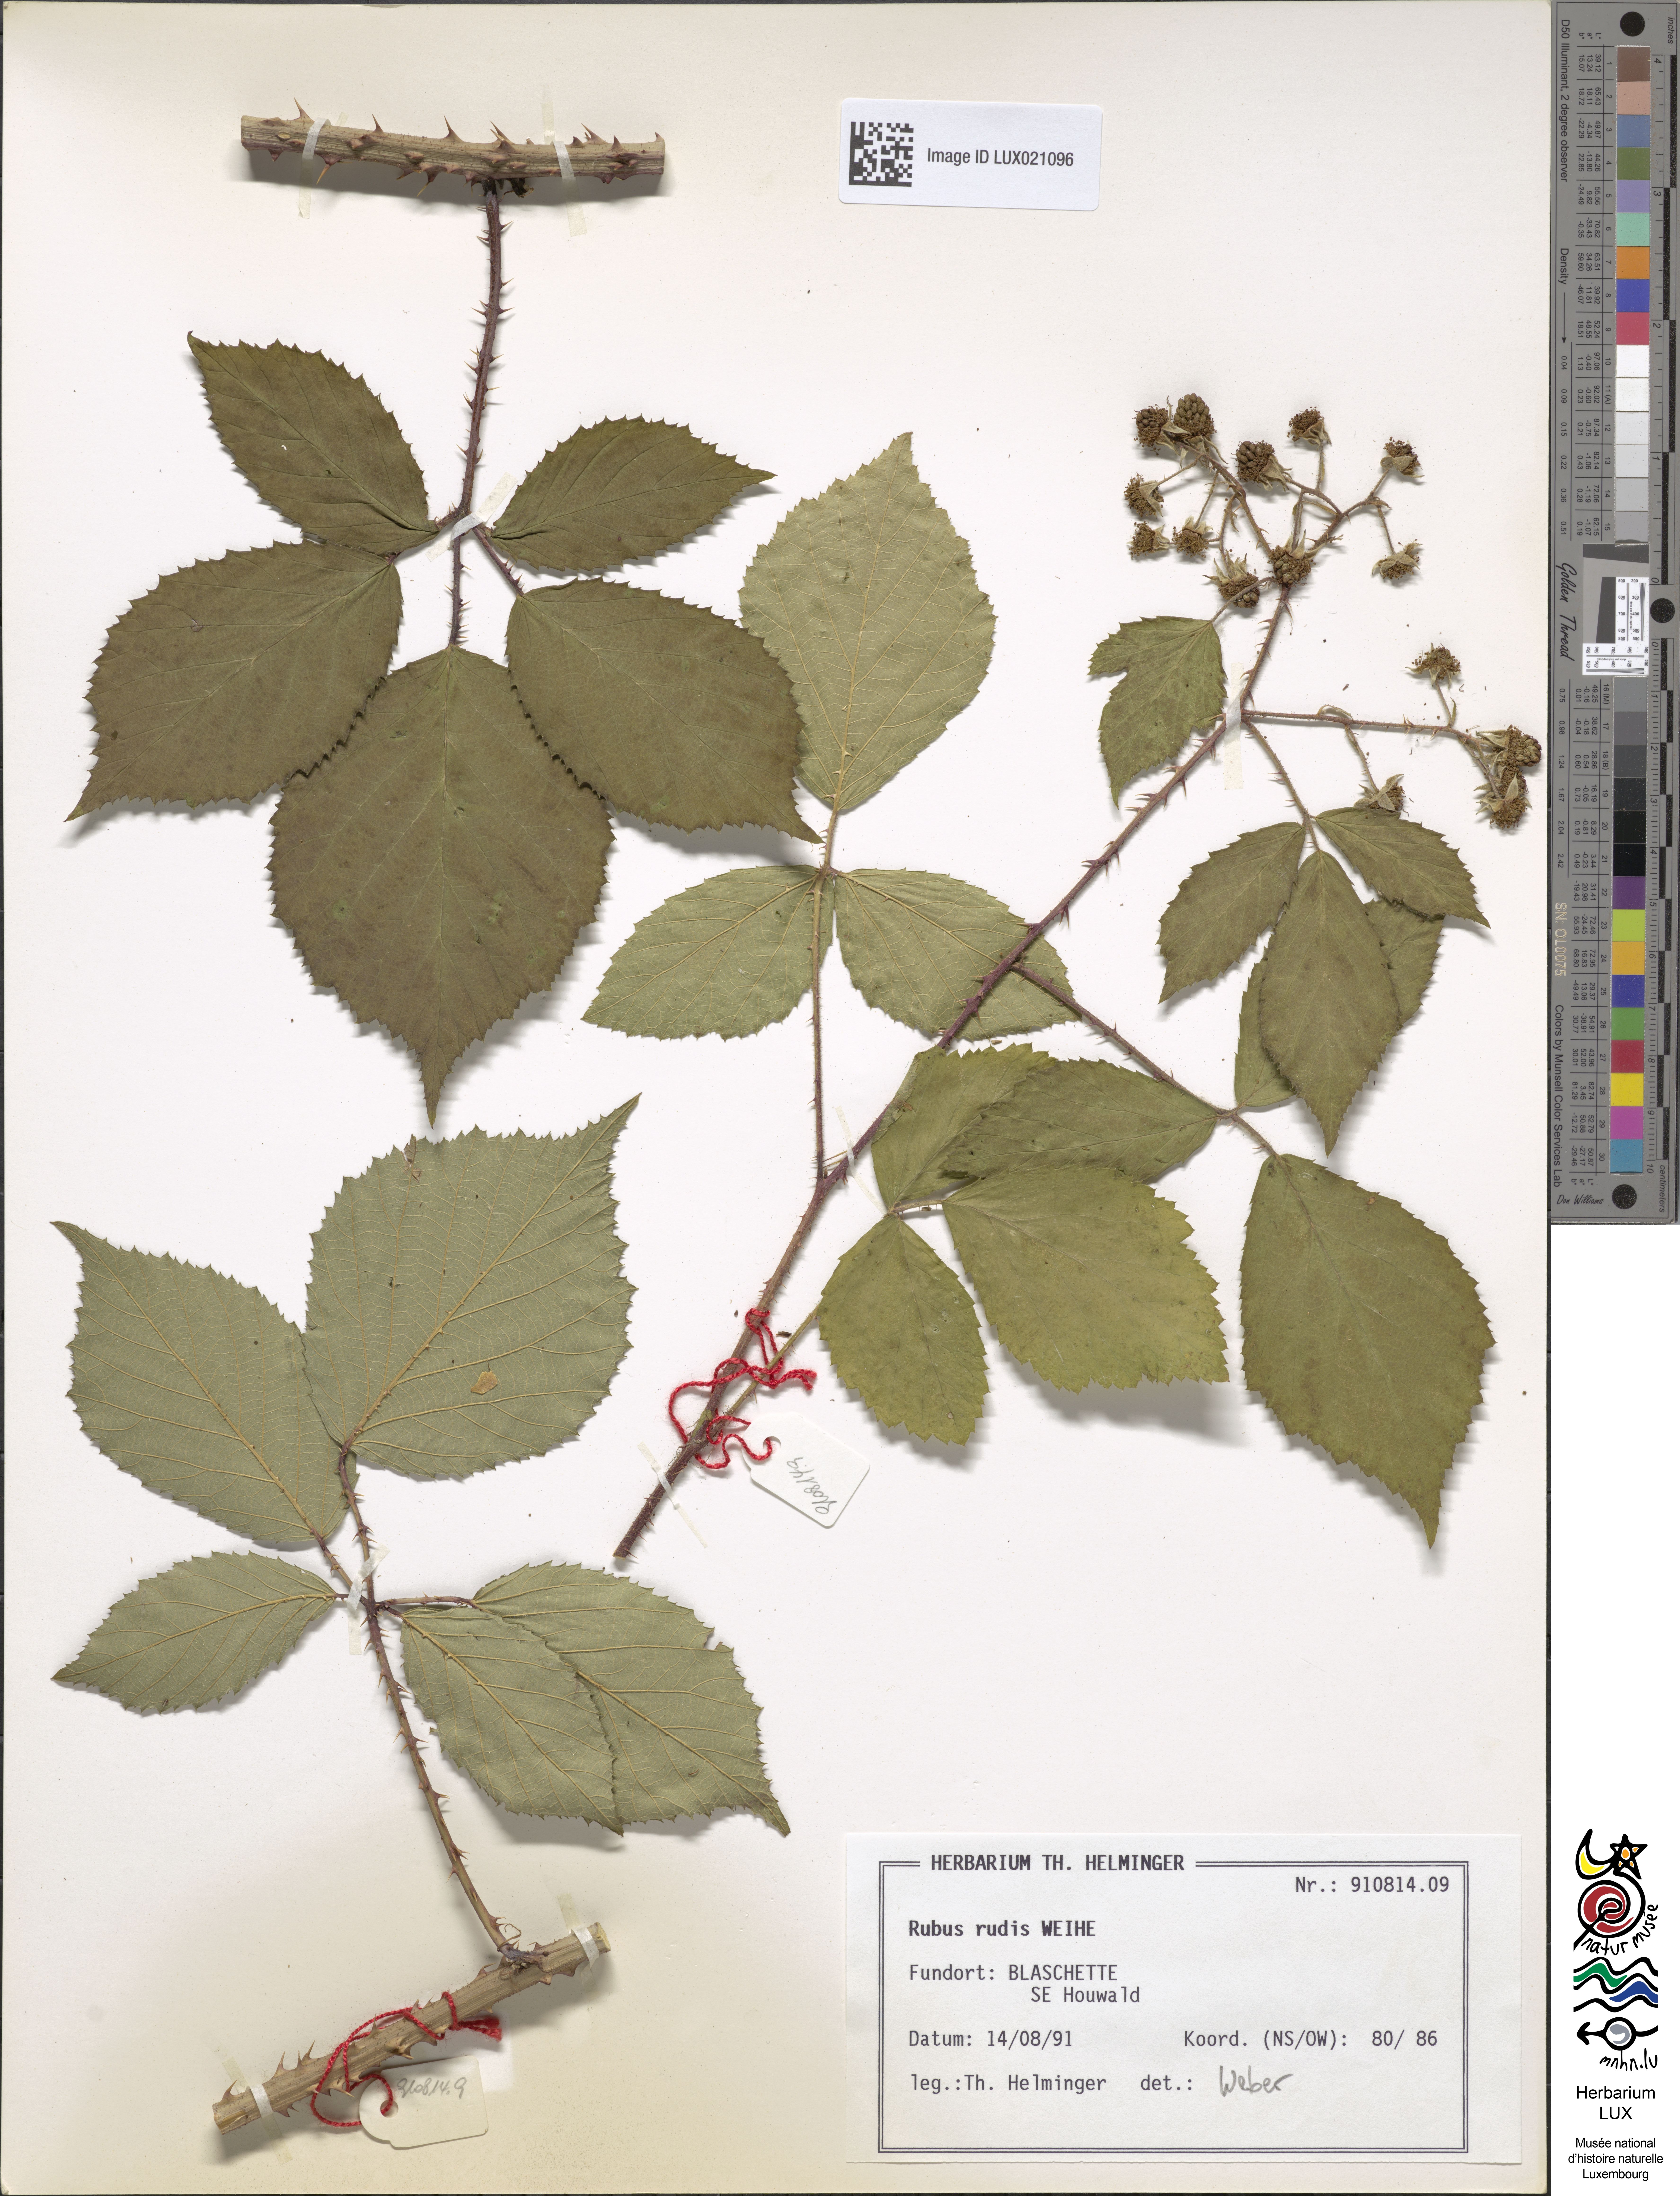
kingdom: Plantae
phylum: Tracheophyta
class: Magnoliopsida
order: Rosales
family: Rosaceae
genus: Rubus
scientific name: Rubus rudis
